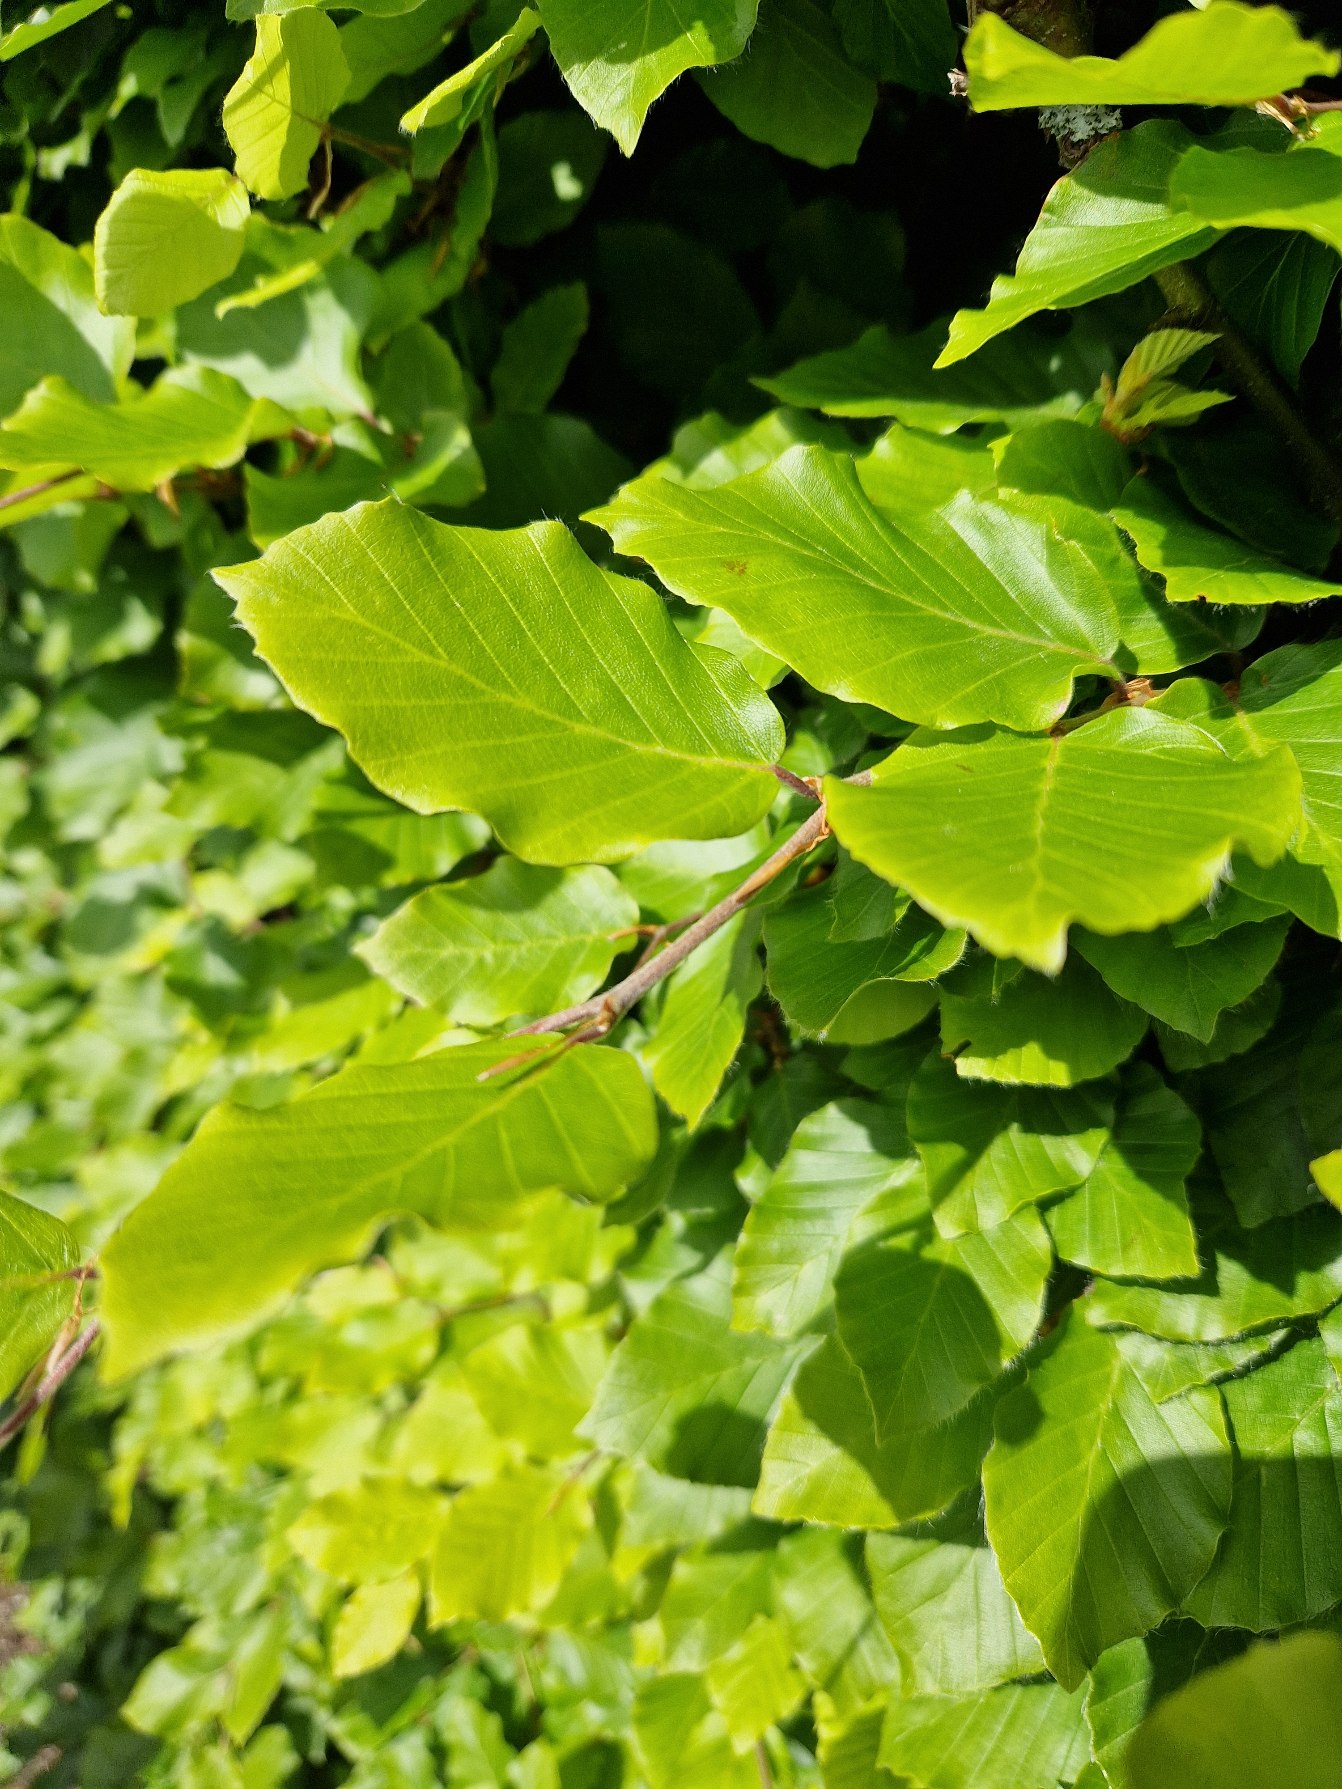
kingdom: Plantae
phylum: Tracheophyta
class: Magnoliopsida
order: Fagales
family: Fagaceae
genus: Fagus
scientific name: Fagus sylvatica
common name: Bøg
